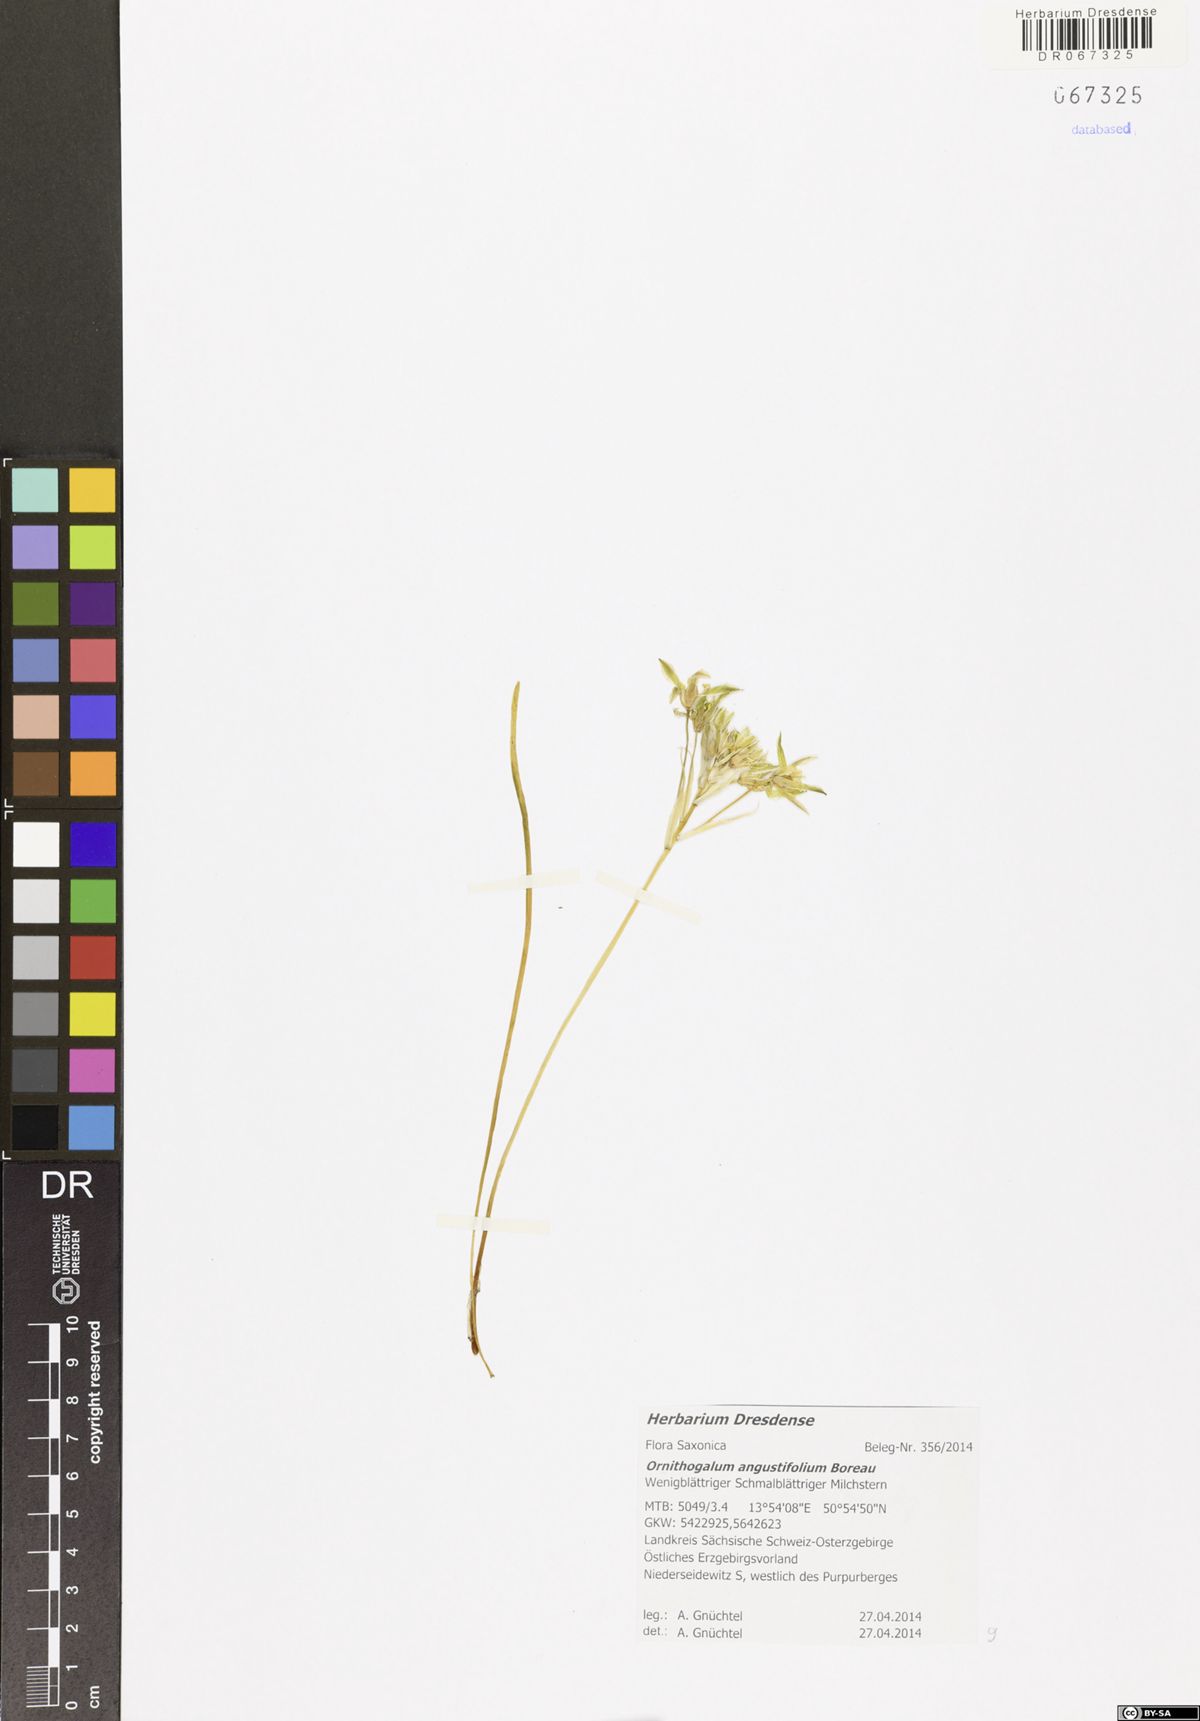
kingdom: Plantae
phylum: Tracheophyta
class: Liliopsida
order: Asparagales
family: Asparagaceae
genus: Ornithogalum
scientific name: Ornithogalum umbellatum
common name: Garden star-of-bethlehem
